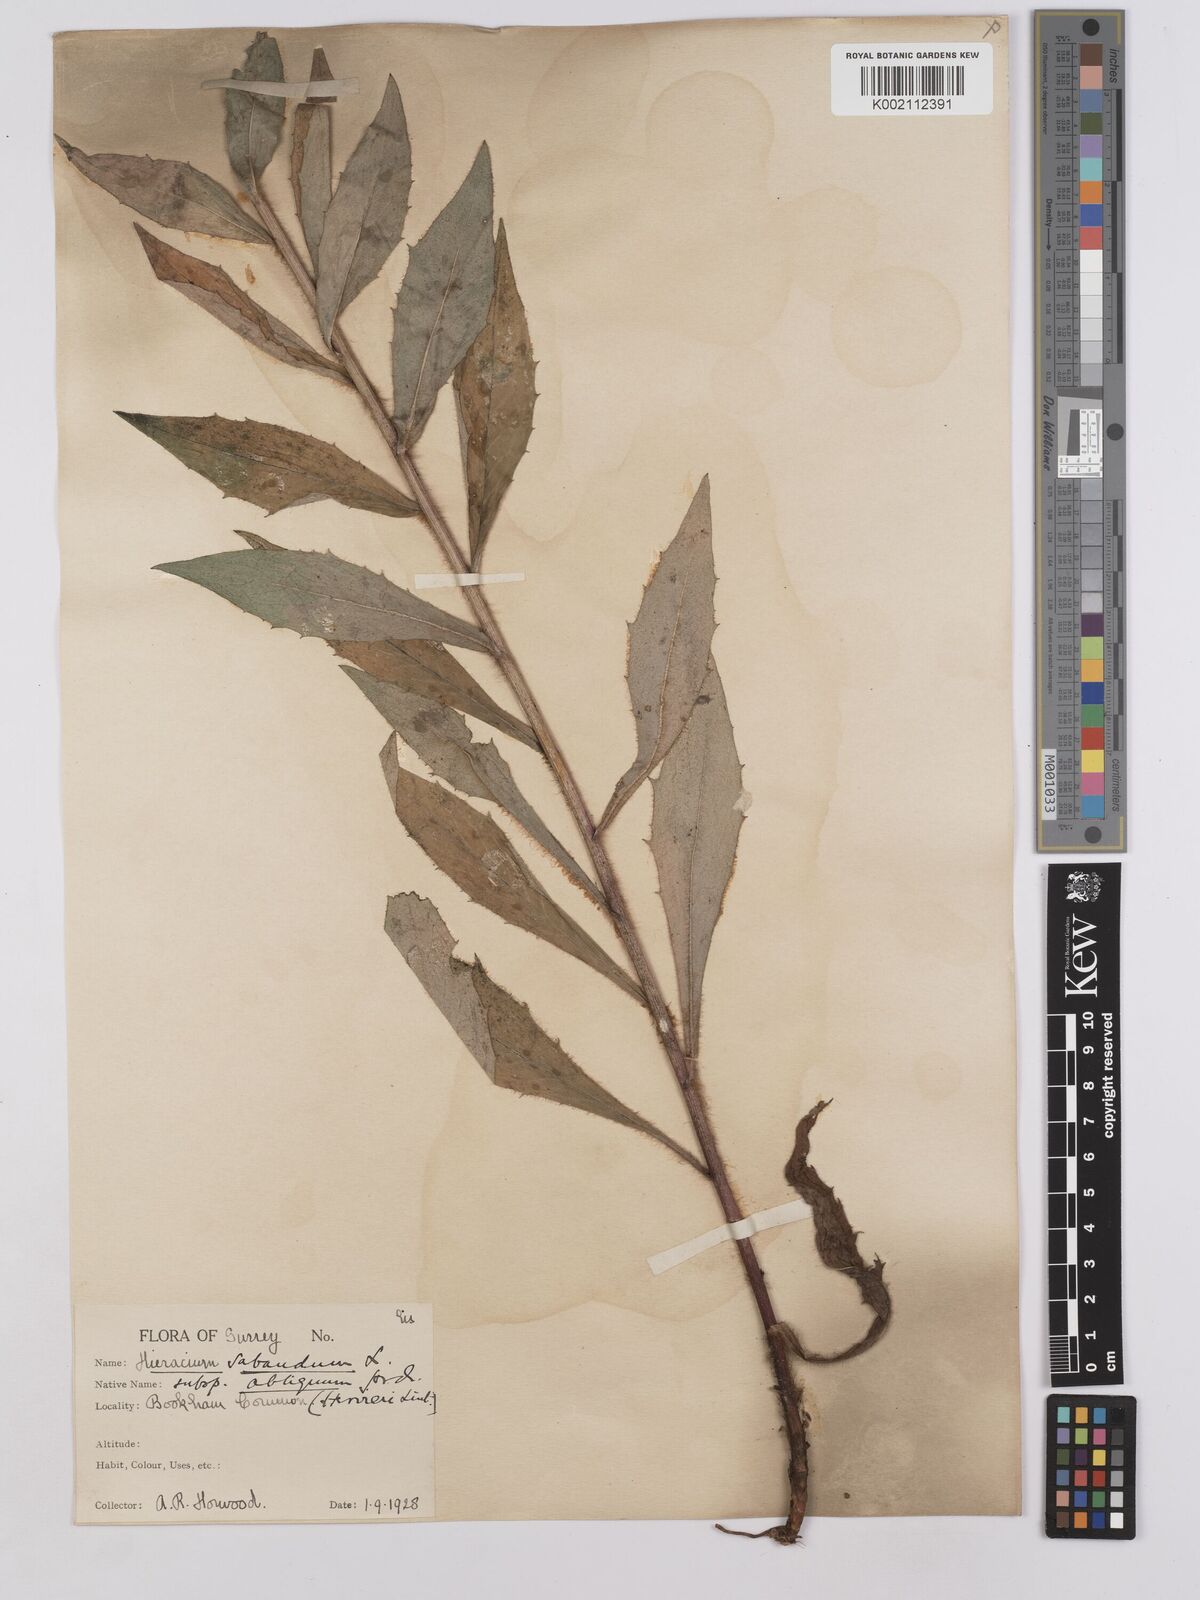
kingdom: Plantae
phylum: Tracheophyta
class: Magnoliopsida
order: Asterales
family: Asteraceae
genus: Hieracium
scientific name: Hieracium sabaudum
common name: New england hawkweed
